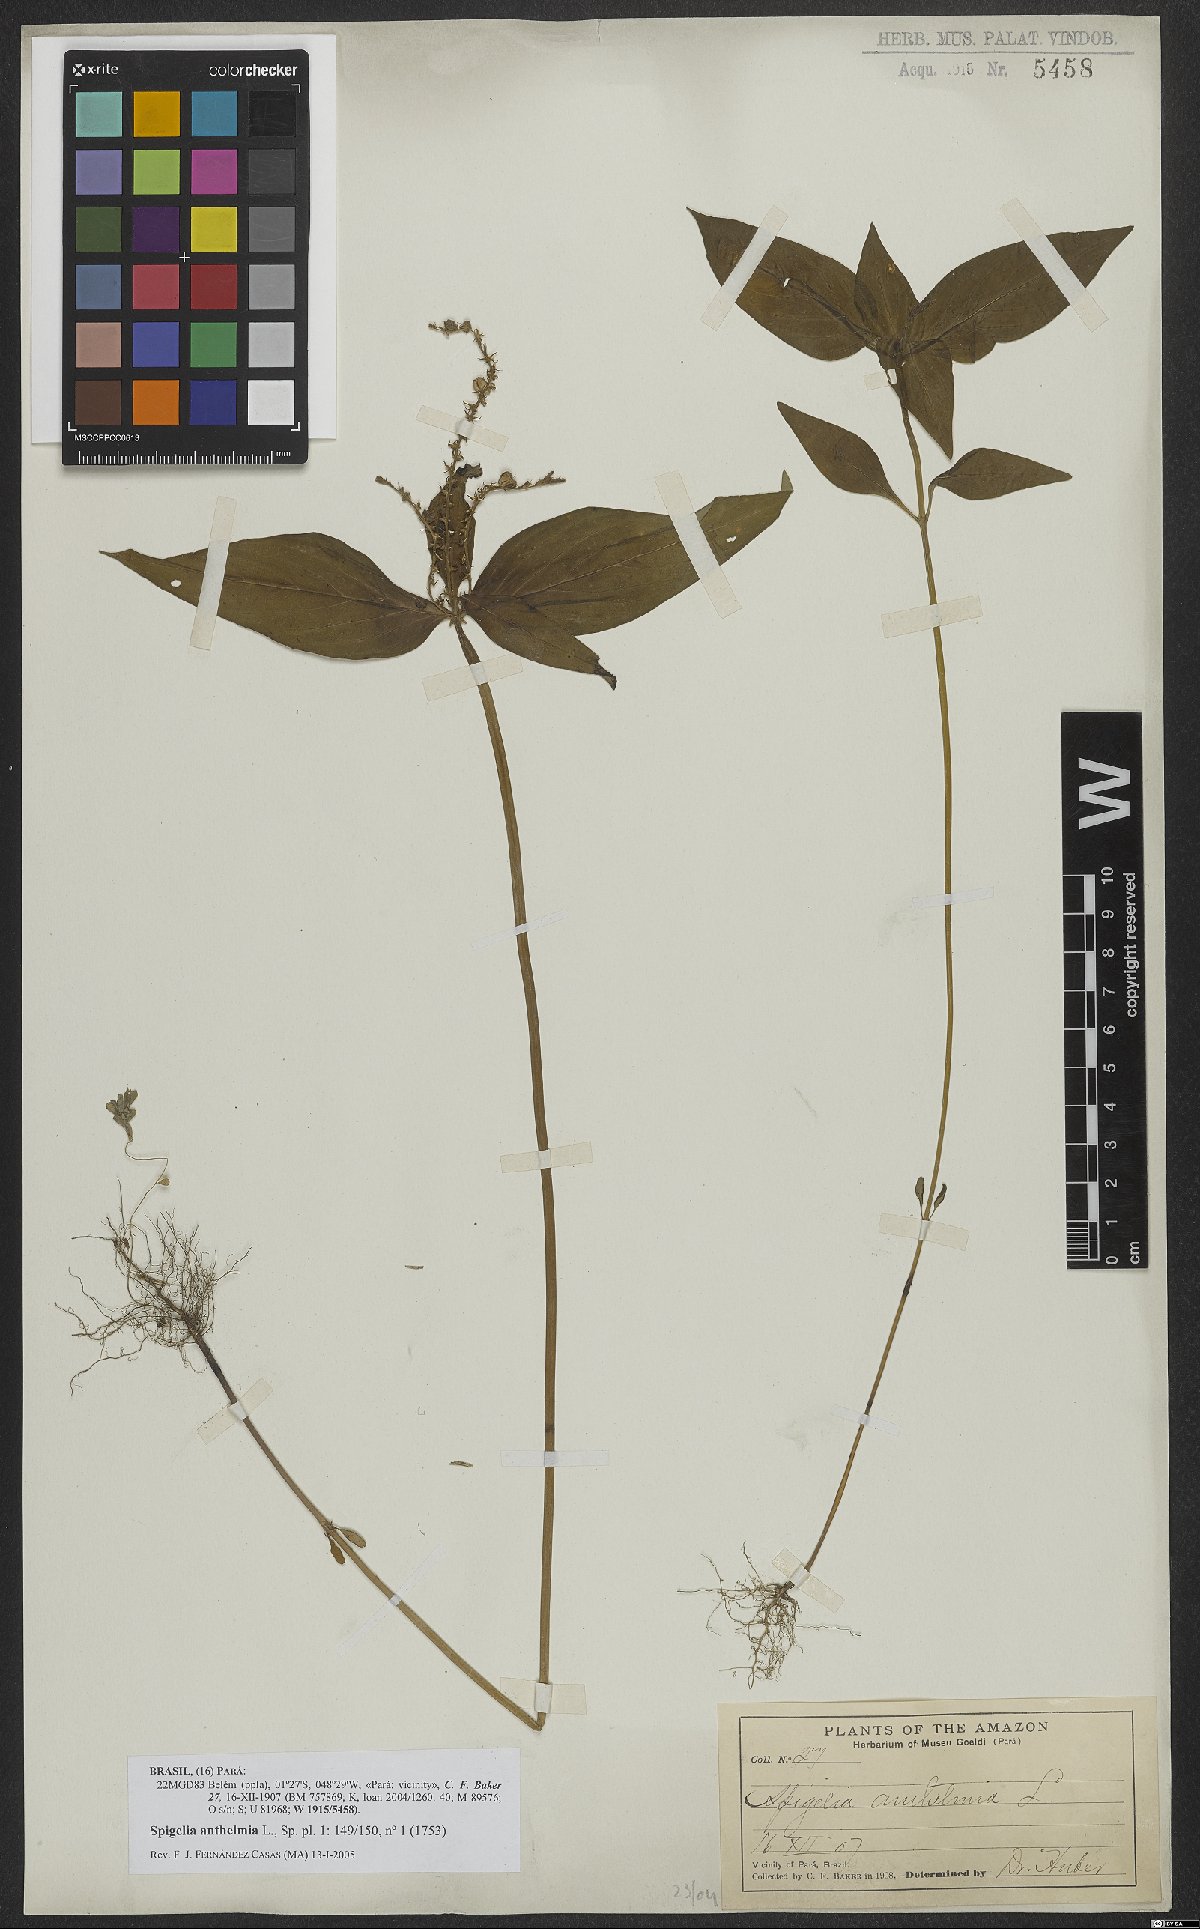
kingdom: Plantae
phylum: Tracheophyta
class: Magnoliopsida
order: Gentianales
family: Loganiaceae
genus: Spigelia
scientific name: Spigelia anthelmia
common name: West indian-pink
